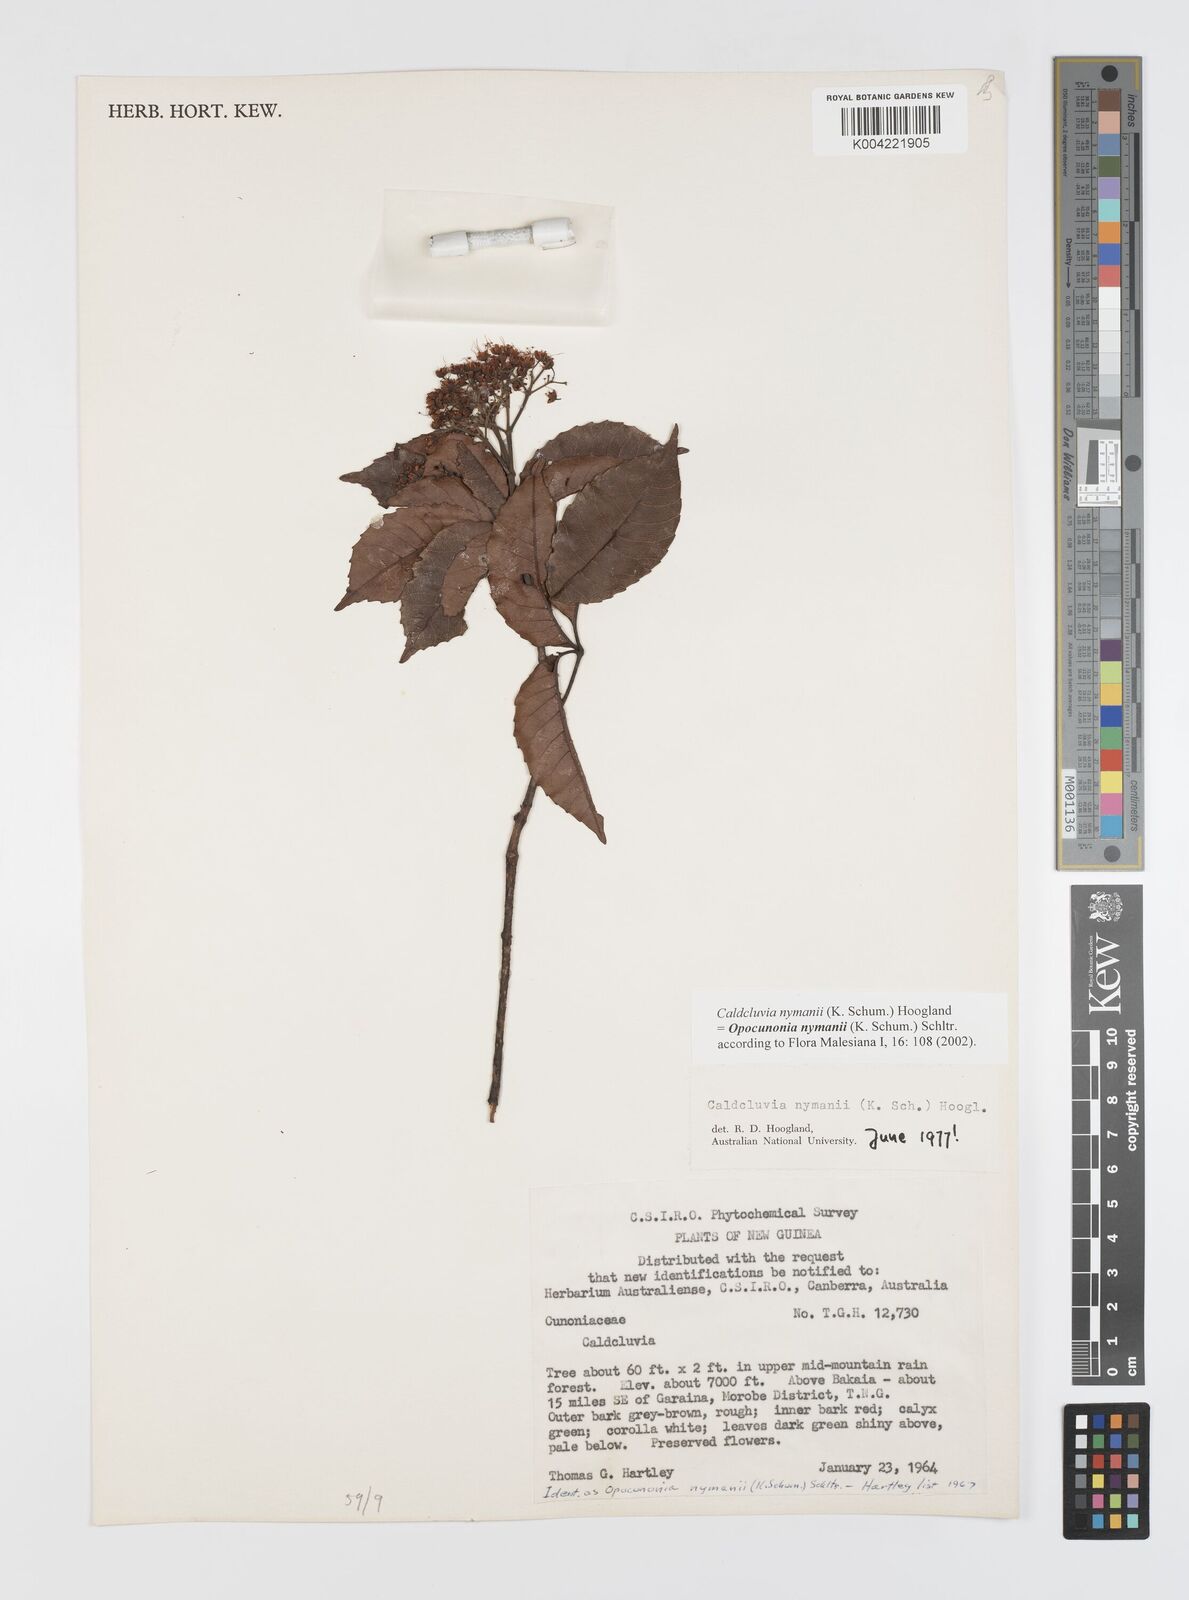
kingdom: Plantae
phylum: Tracheophyta
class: Magnoliopsida
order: Oxalidales
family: Cunoniaceae
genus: Opocunonia
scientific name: Opocunonia nymanii
